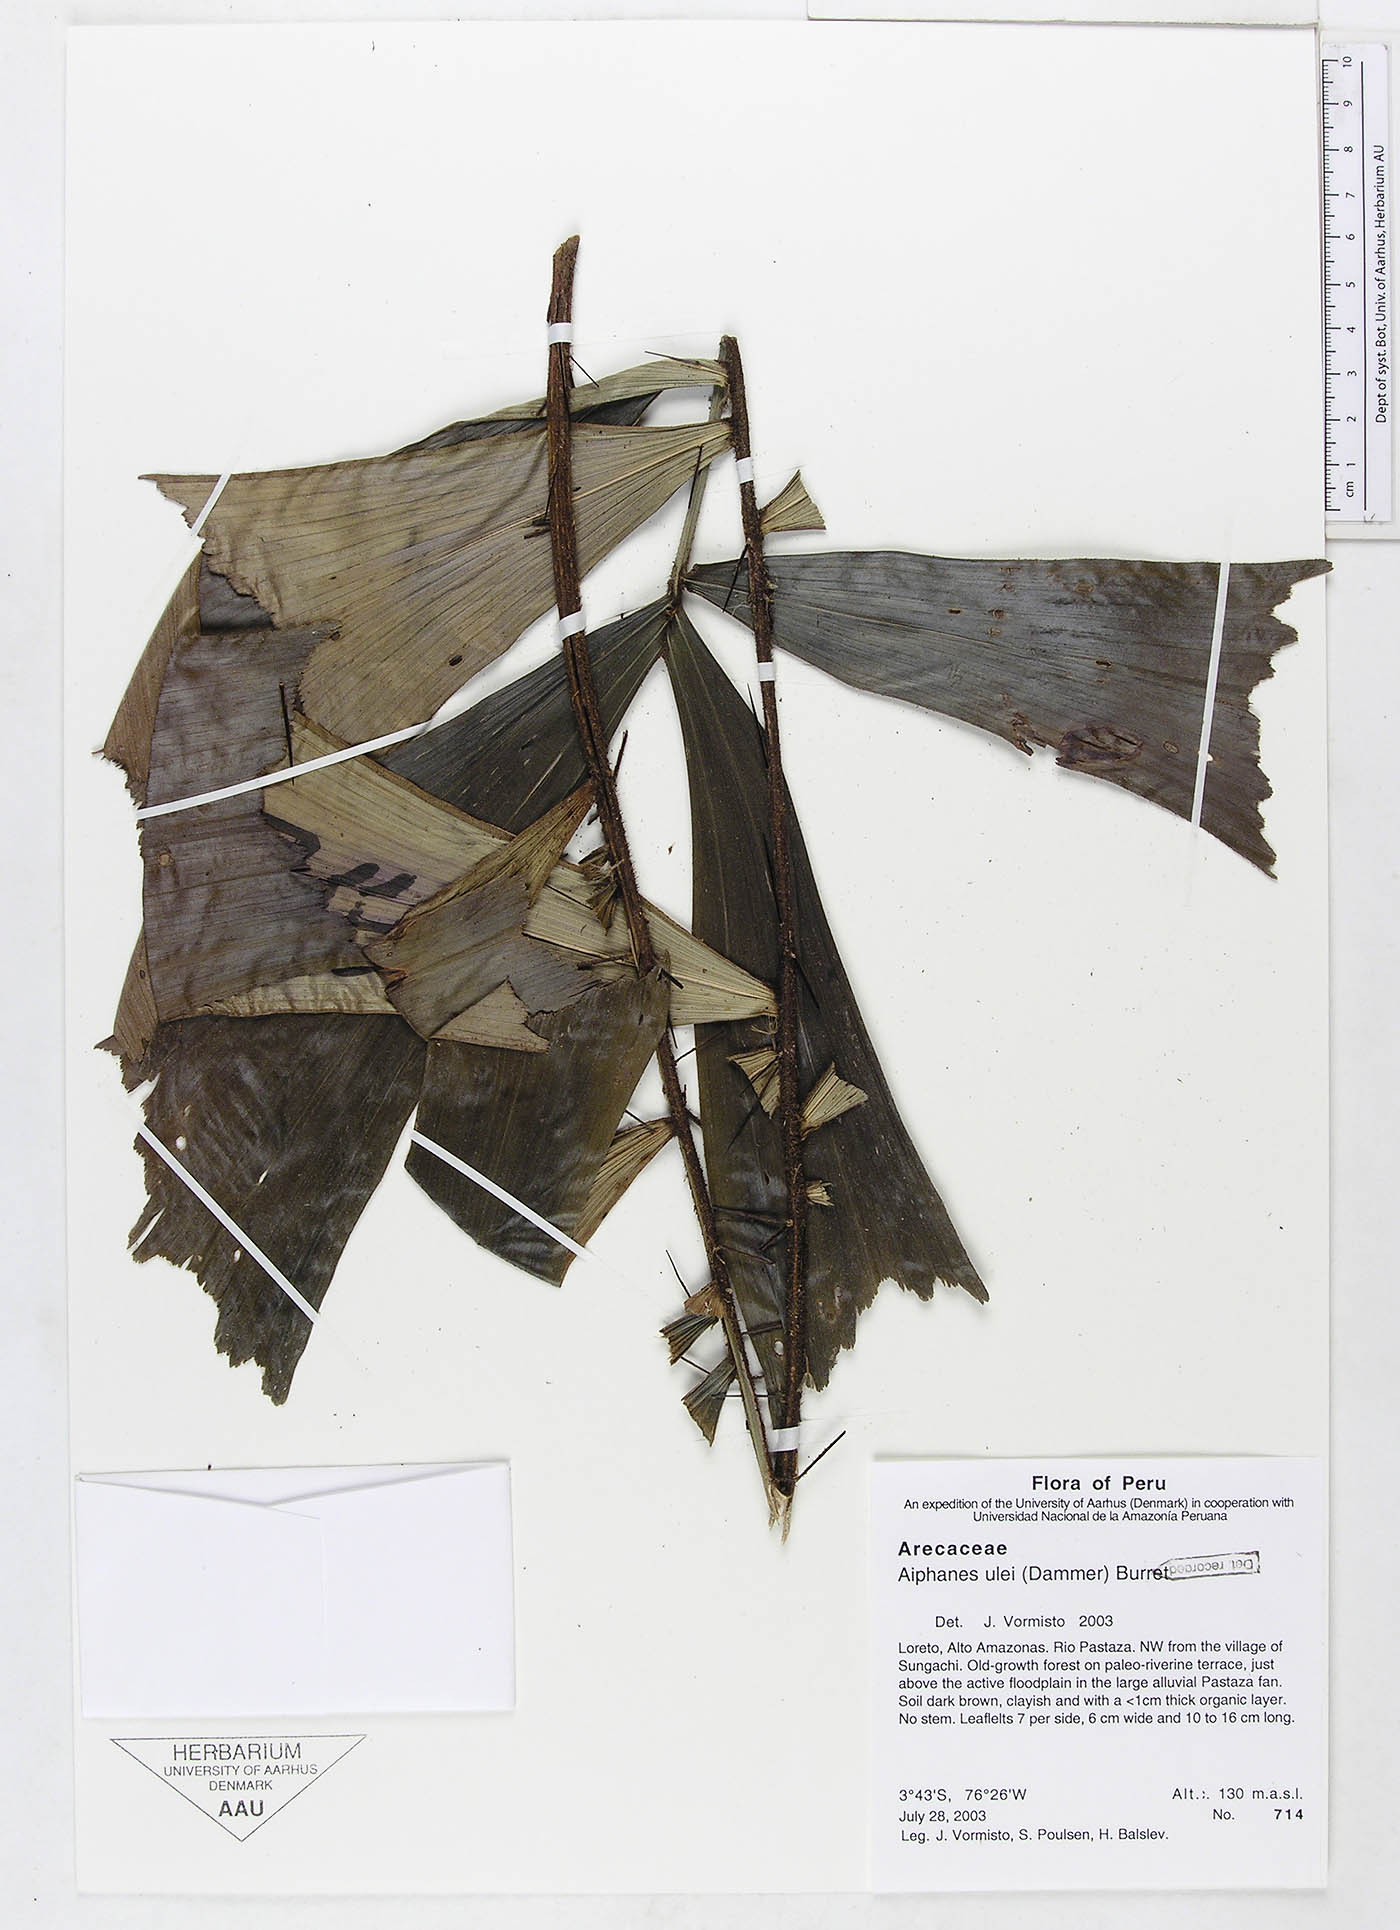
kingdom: Plantae
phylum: Tracheophyta
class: Liliopsida
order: Arecales
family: Arecaceae
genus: Aiphanes
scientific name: Aiphanes ulei
